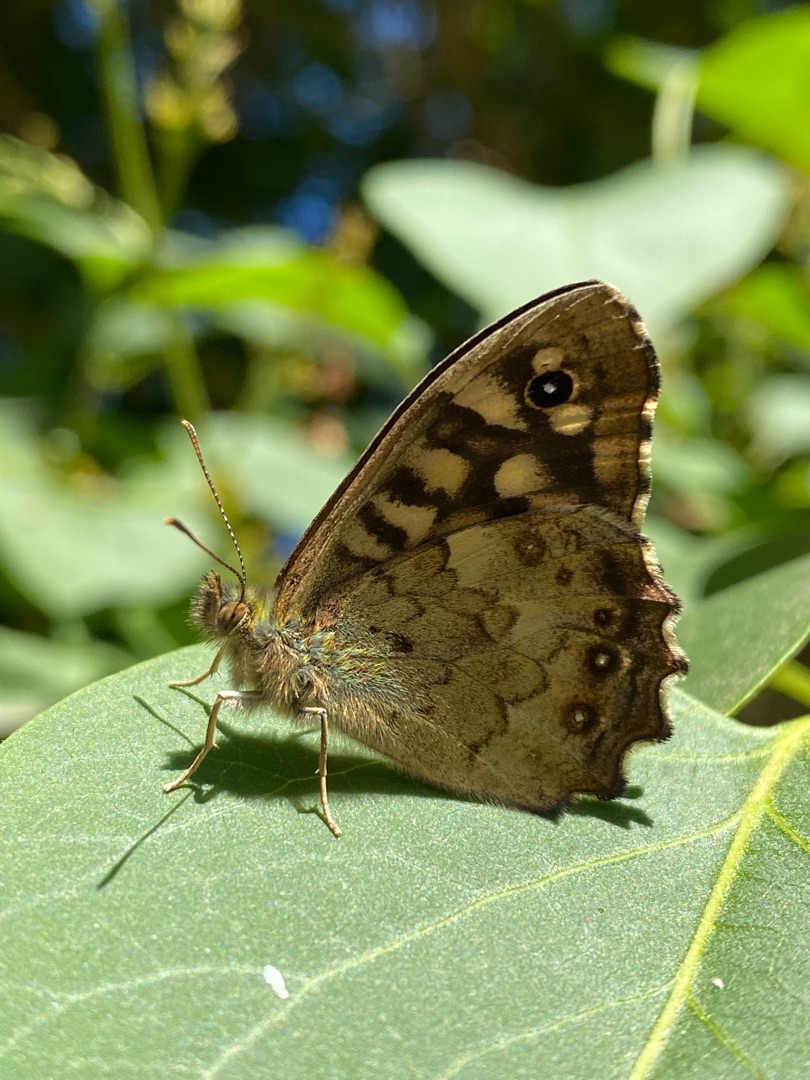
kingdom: Animalia
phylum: Arthropoda
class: Insecta
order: Lepidoptera
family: Nymphalidae
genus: Pararge
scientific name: Pararge aegeria
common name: Skovrandøje
